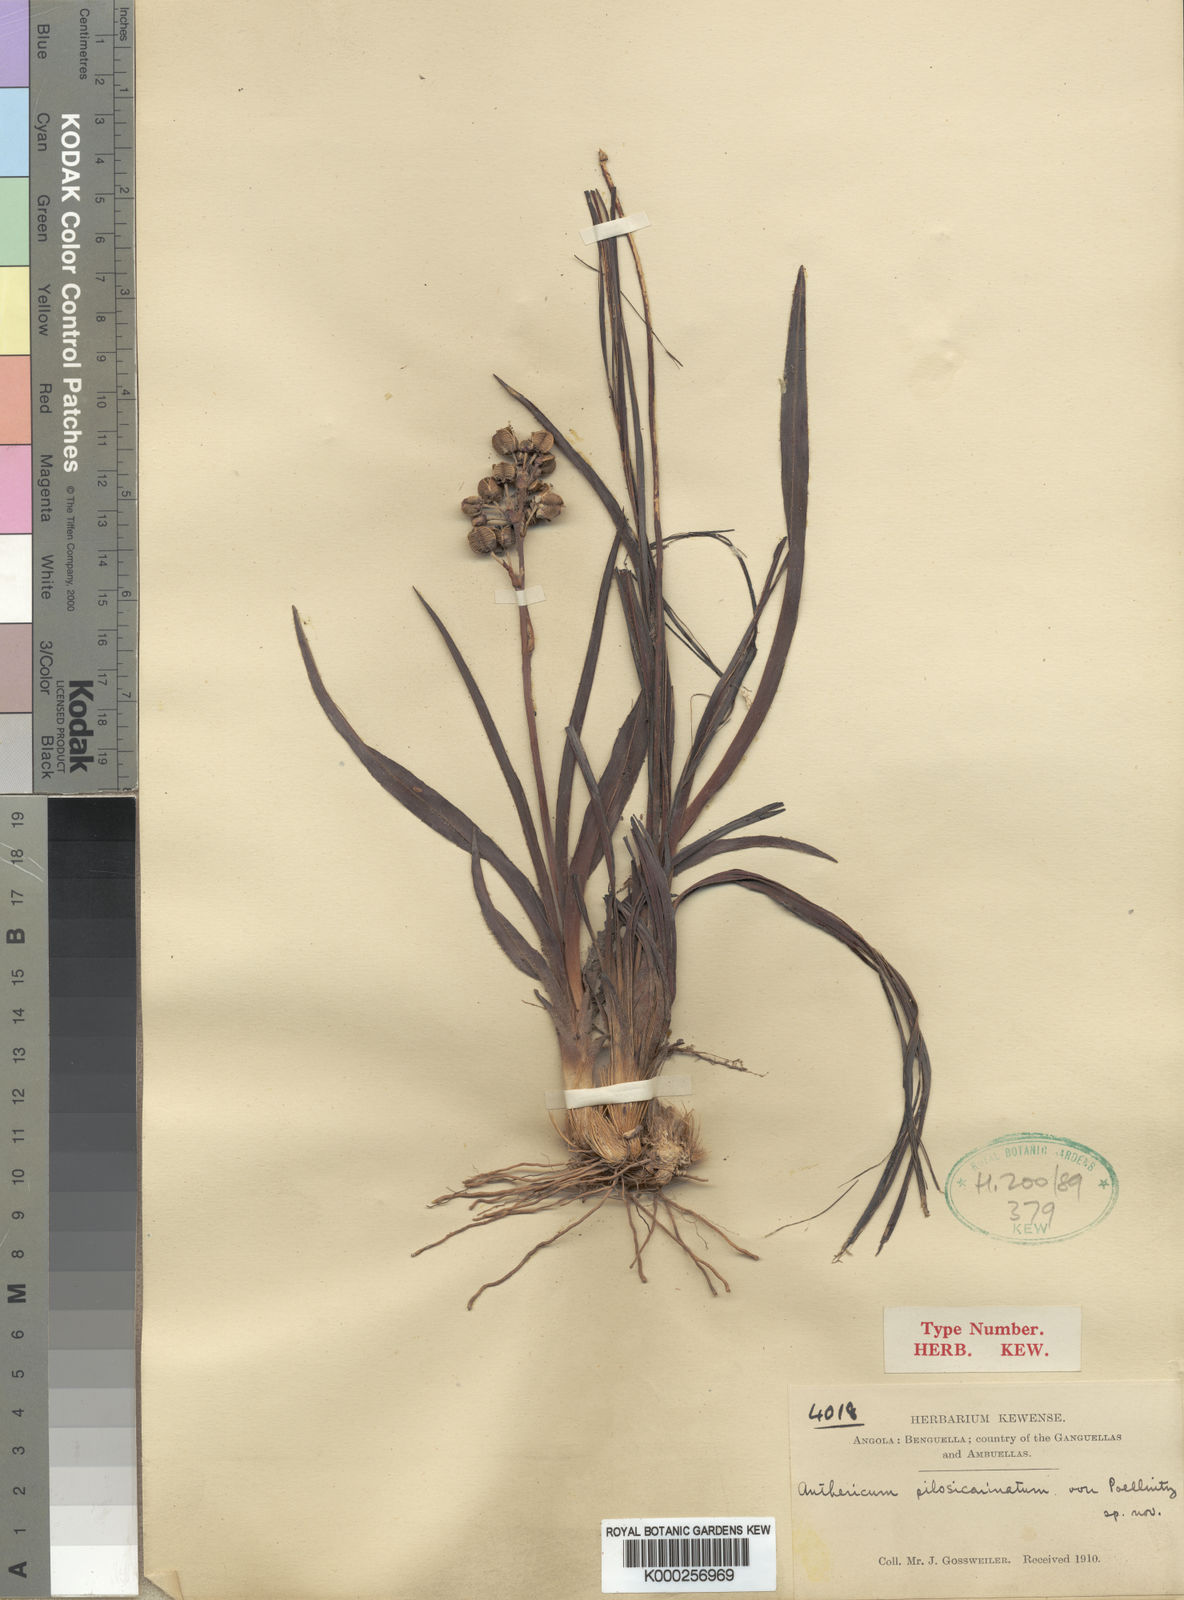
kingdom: Plantae
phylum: Tracheophyta
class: Liliopsida
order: Asparagales
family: Asparagaceae
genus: Chlorophytum
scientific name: Chlorophytum pilosicarinatum
